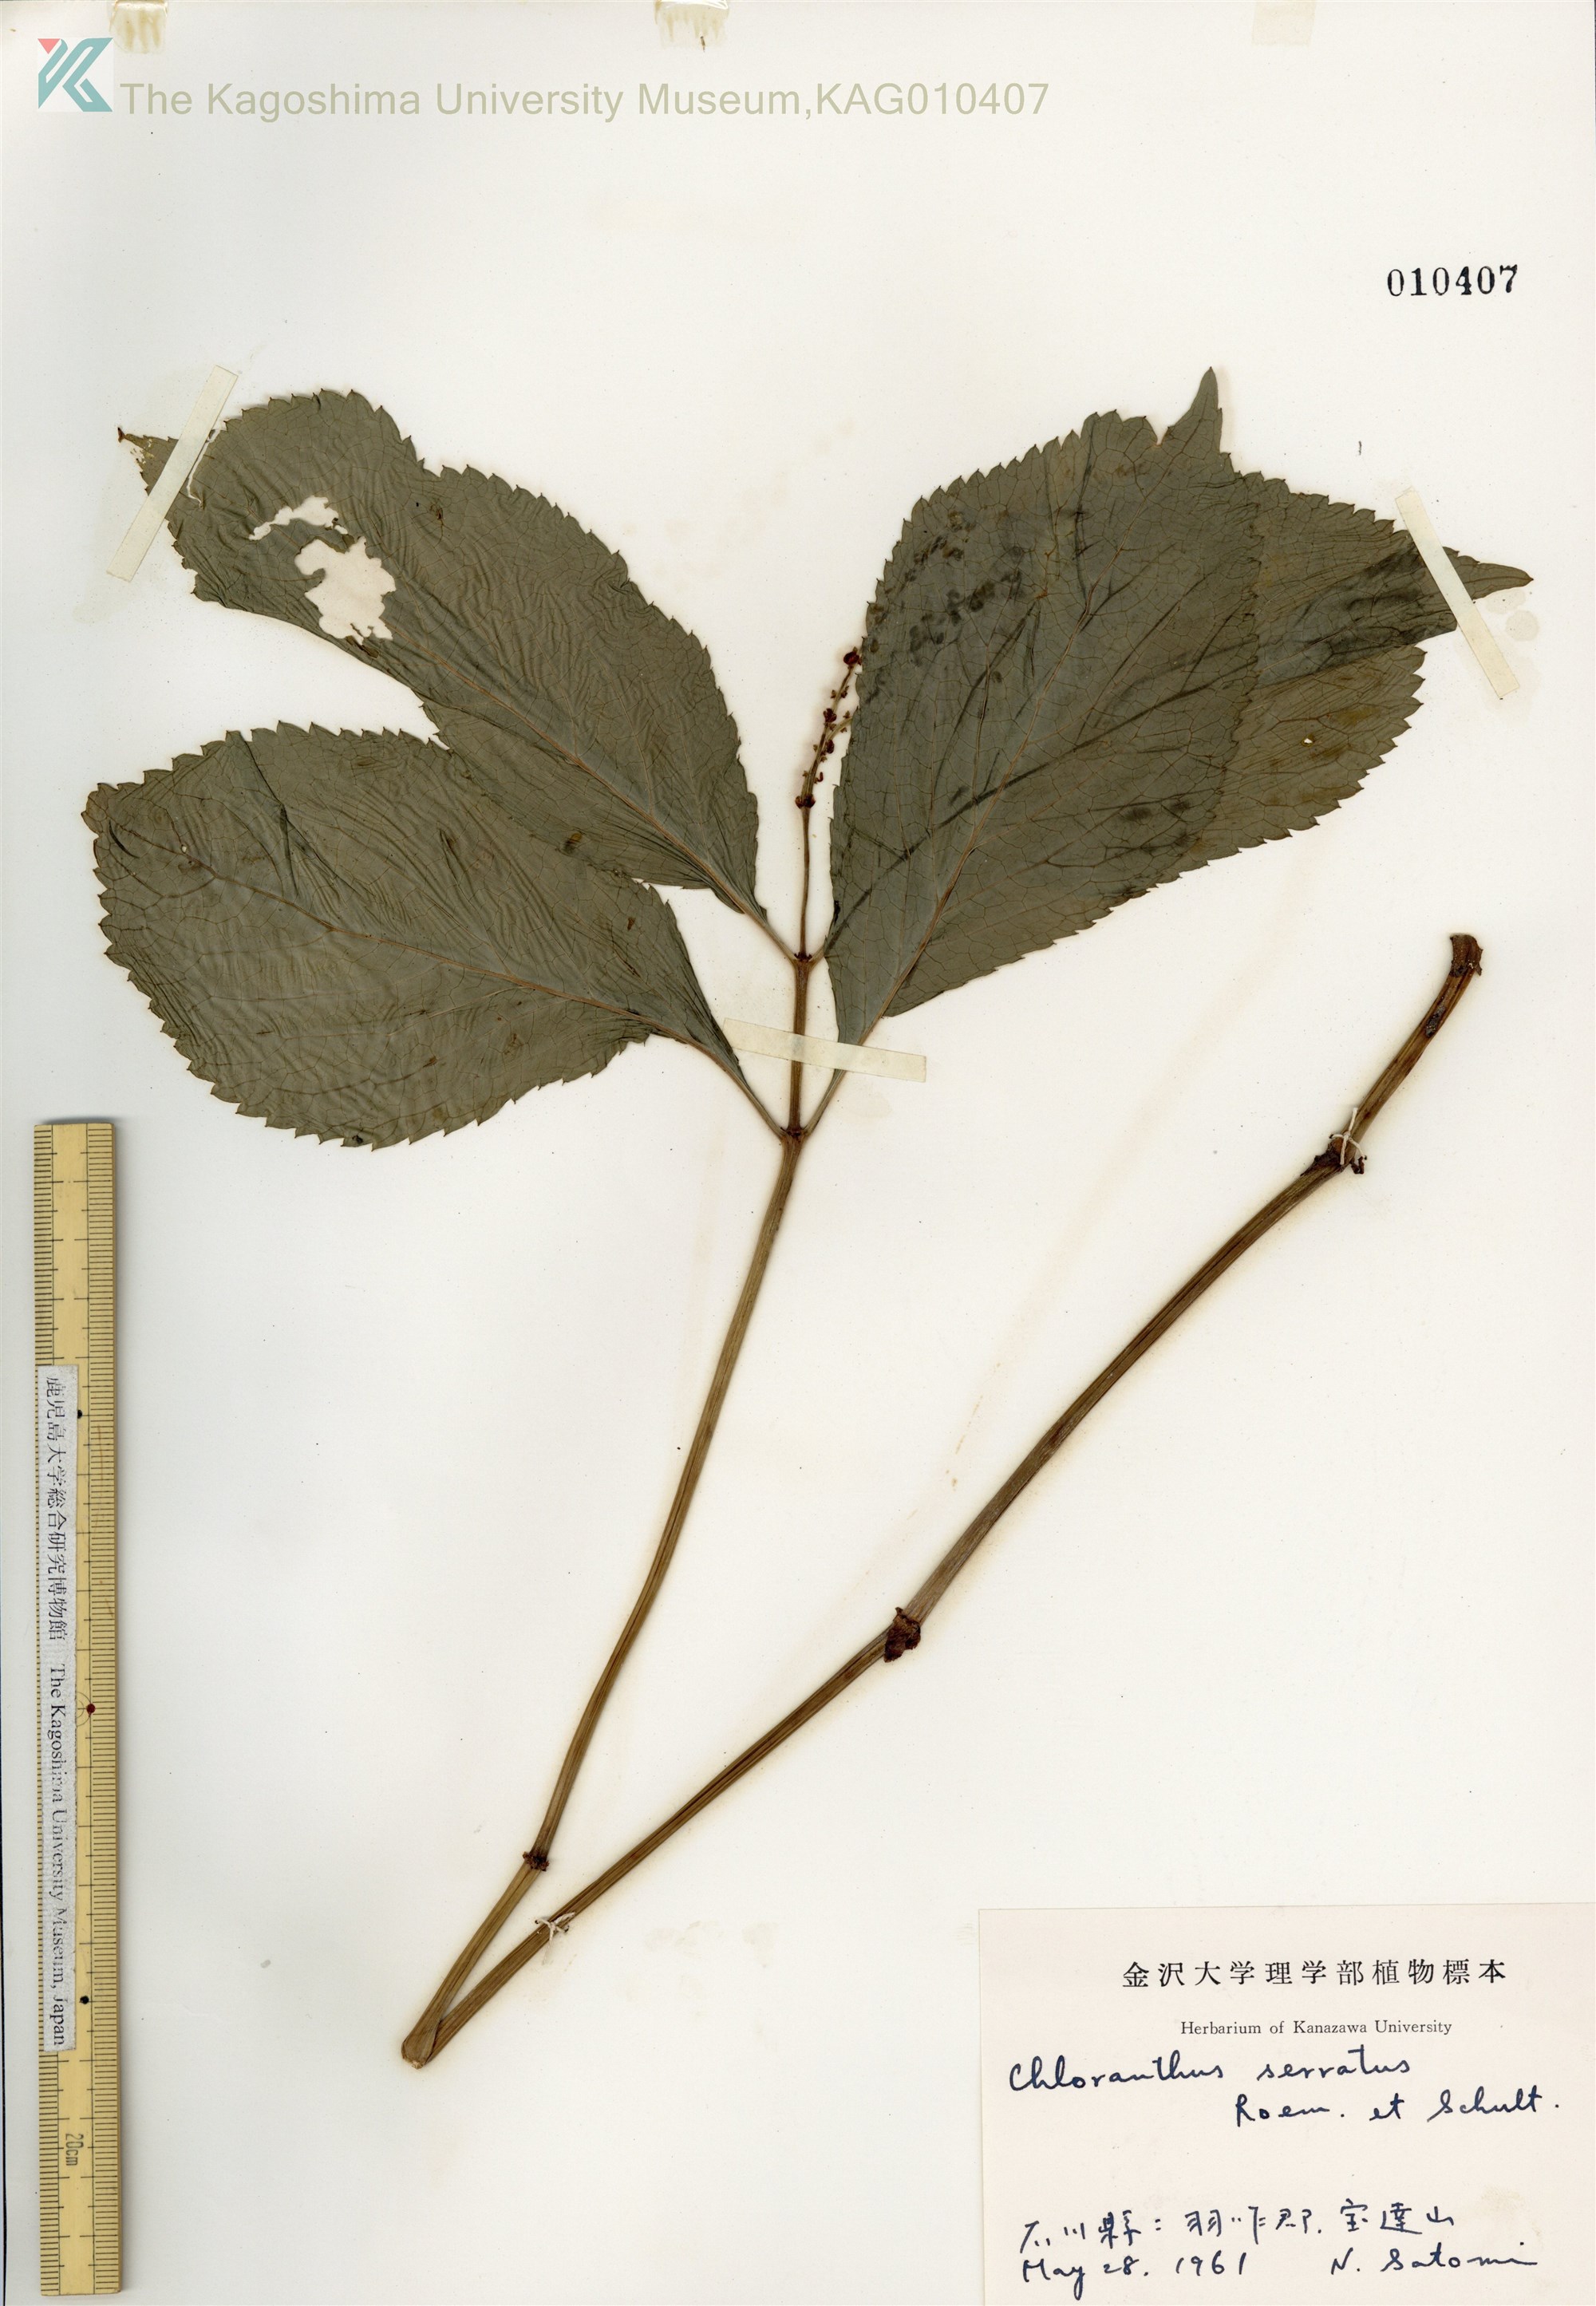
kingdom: Plantae
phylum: Tracheophyta
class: Magnoliopsida
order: Chloranthales
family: Chloranthaceae
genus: Chloranthus
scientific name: Chloranthus serratus
